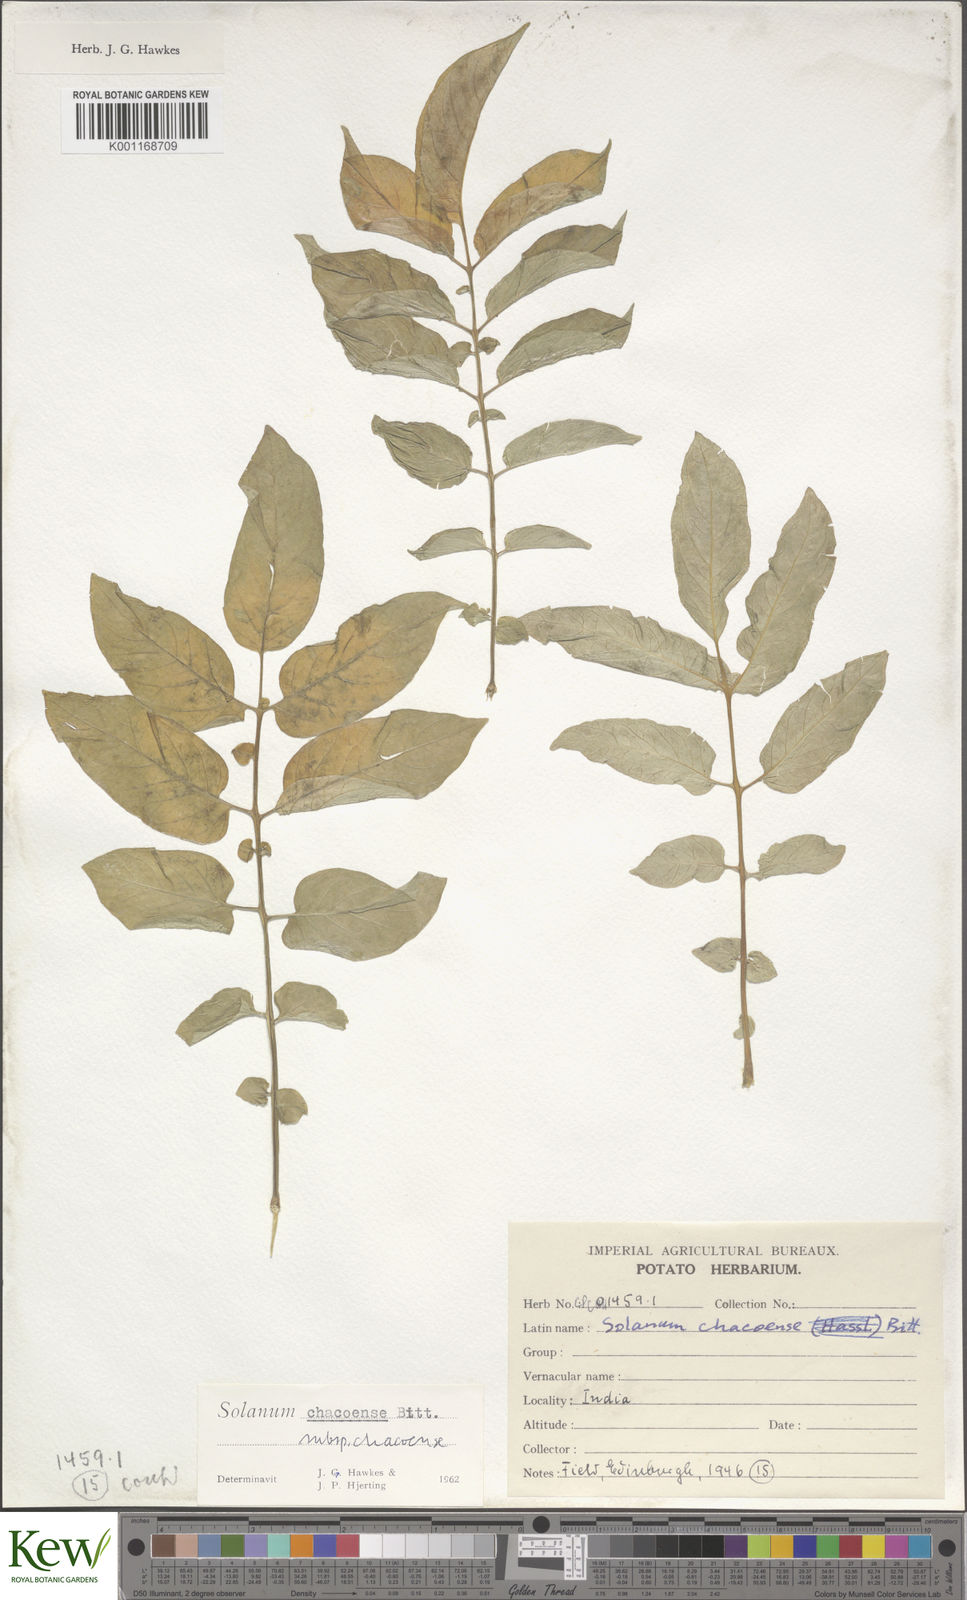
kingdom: Plantae
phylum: Tracheophyta
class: Magnoliopsida
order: Solanales
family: Solanaceae
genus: Solanum
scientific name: Solanum chacoense
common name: Chaco potato
